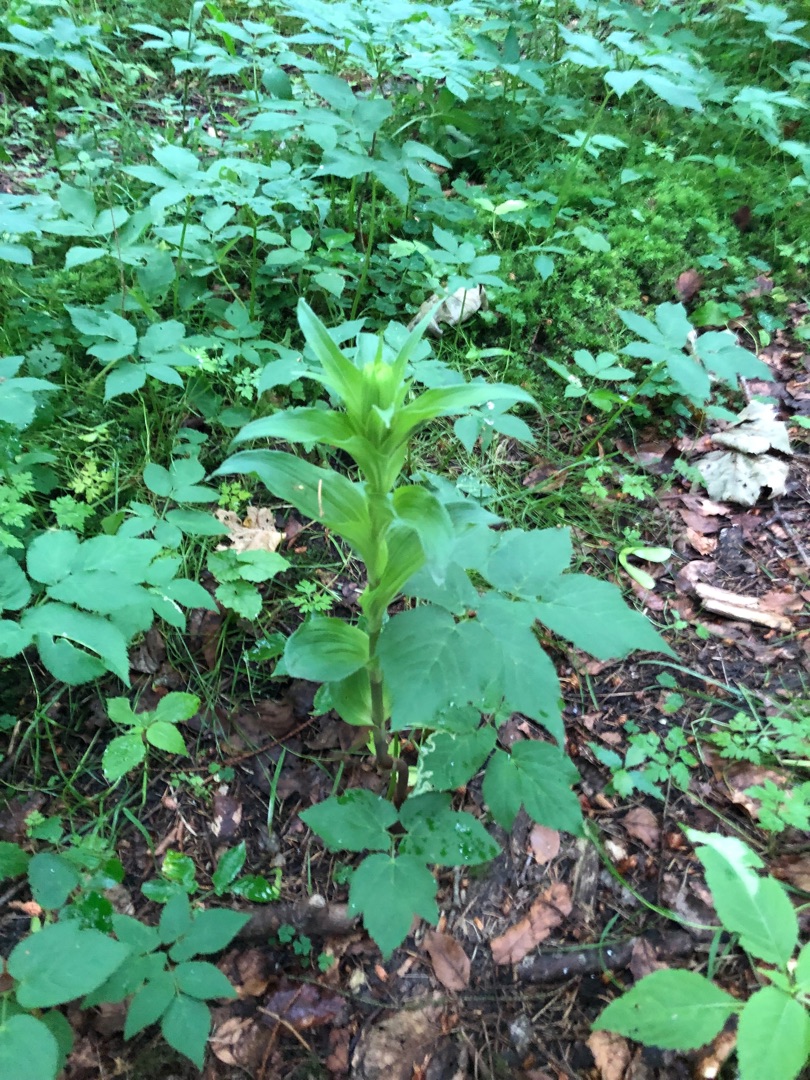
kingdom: Plantae
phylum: Tracheophyta
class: Liliopsida
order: Asparagales
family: Orchidaceae
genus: Epipactis
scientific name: Epipactis helleborine
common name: Skov-hullæbe
